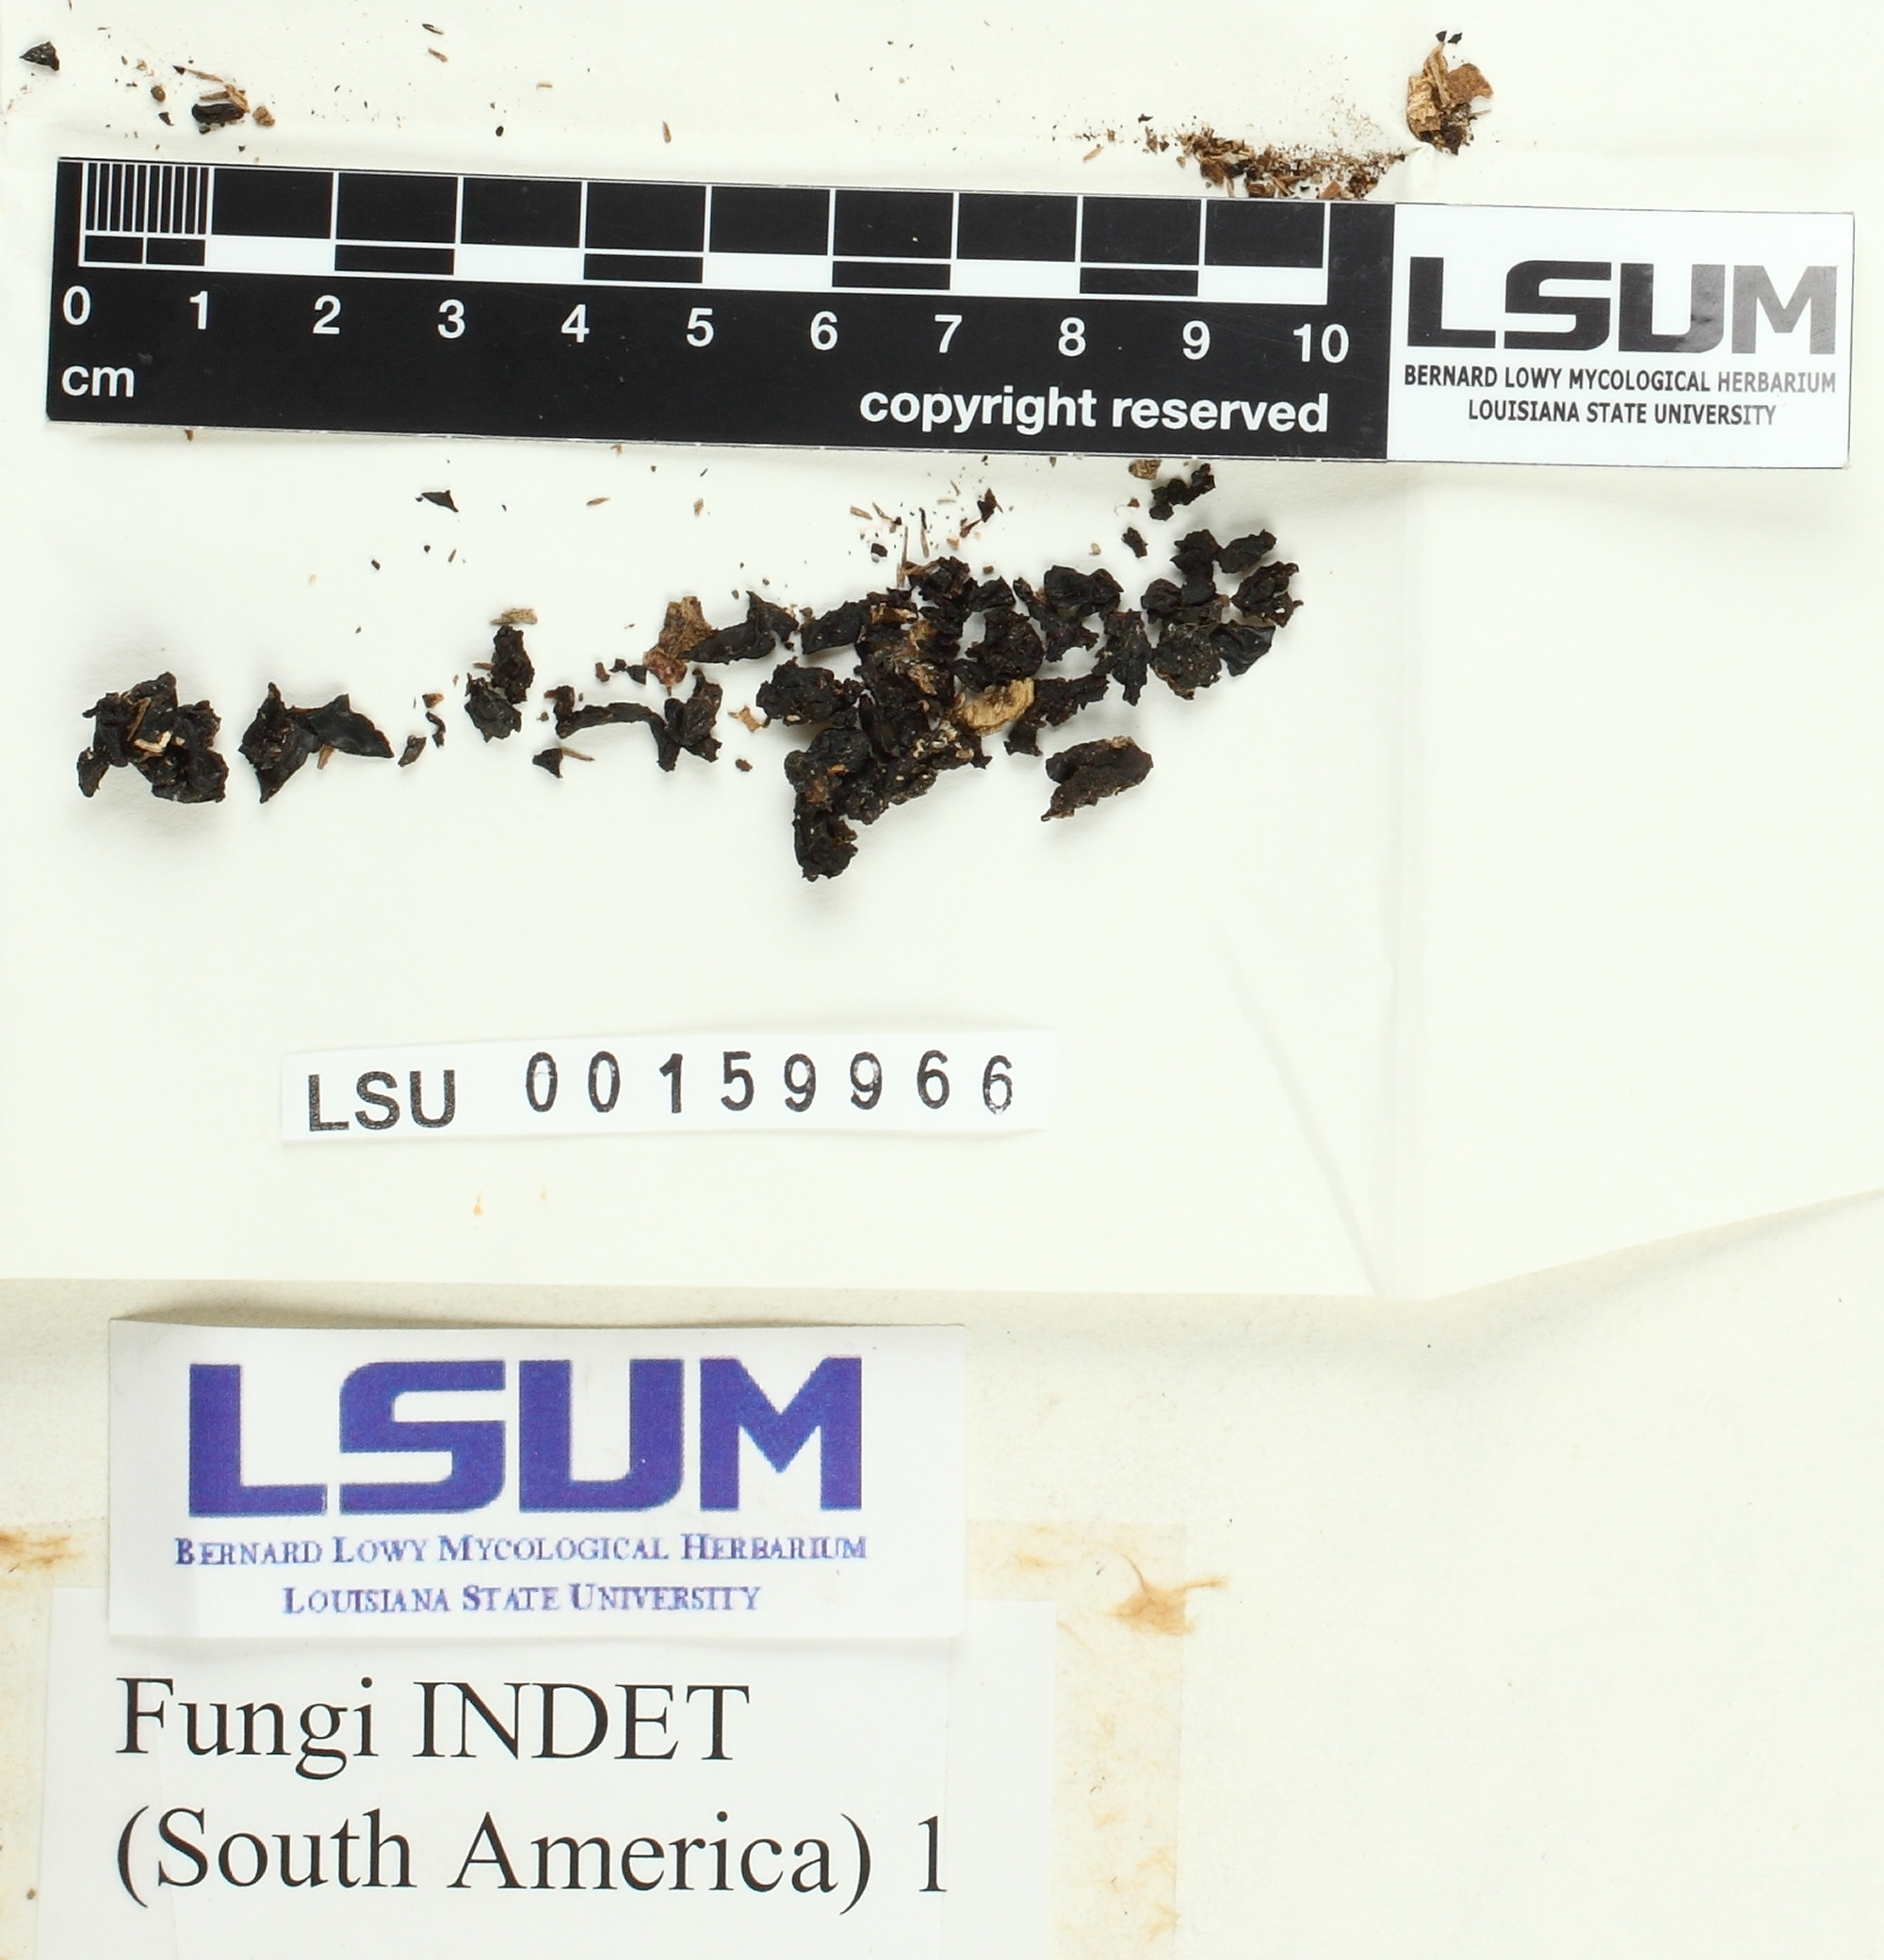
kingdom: Fungi
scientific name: Fungi
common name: Fungi
